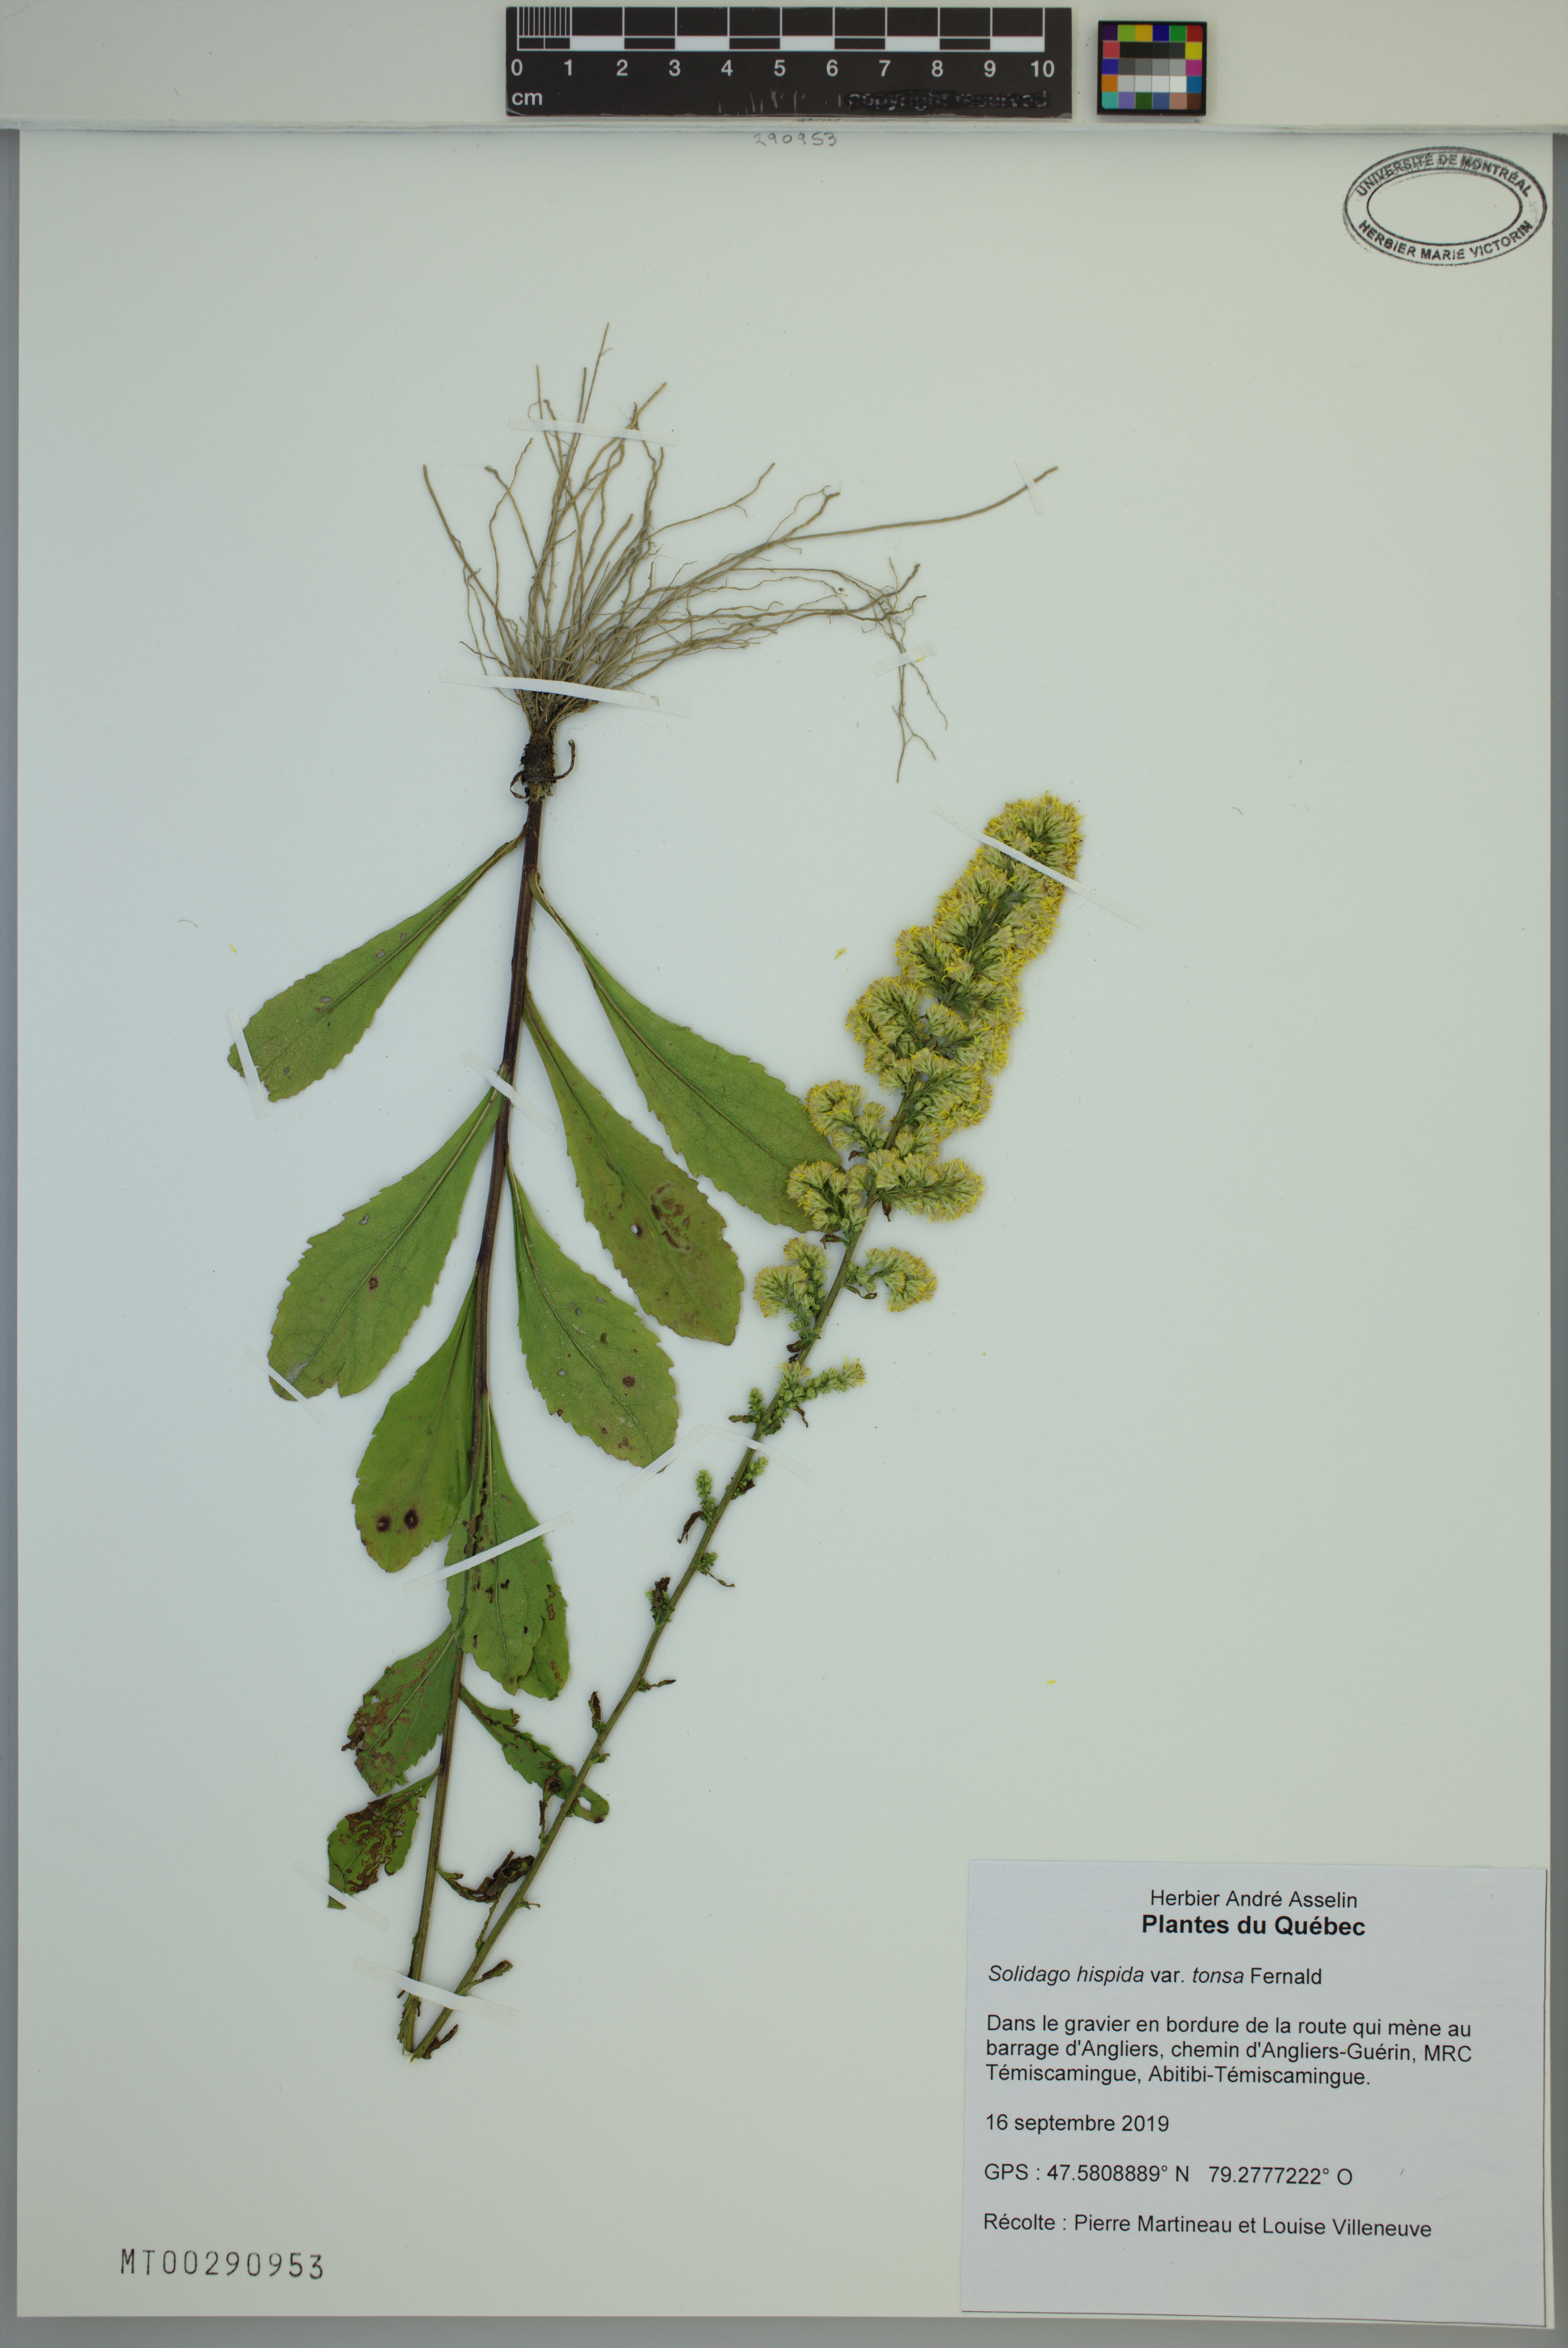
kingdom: Plantae
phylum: Tracheophyta
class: Magnoliopsida
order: Asterales
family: Asteraceae
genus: Solidago
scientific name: Solidago hispida
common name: Hairy goldenrod
